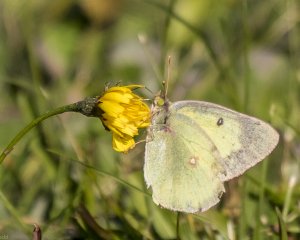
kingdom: Animalia
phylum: Arthropoda
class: Insecta
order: Lepidoptera
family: Pieridae
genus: Colias
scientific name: Colias philodice
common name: Clouded Sulphur
